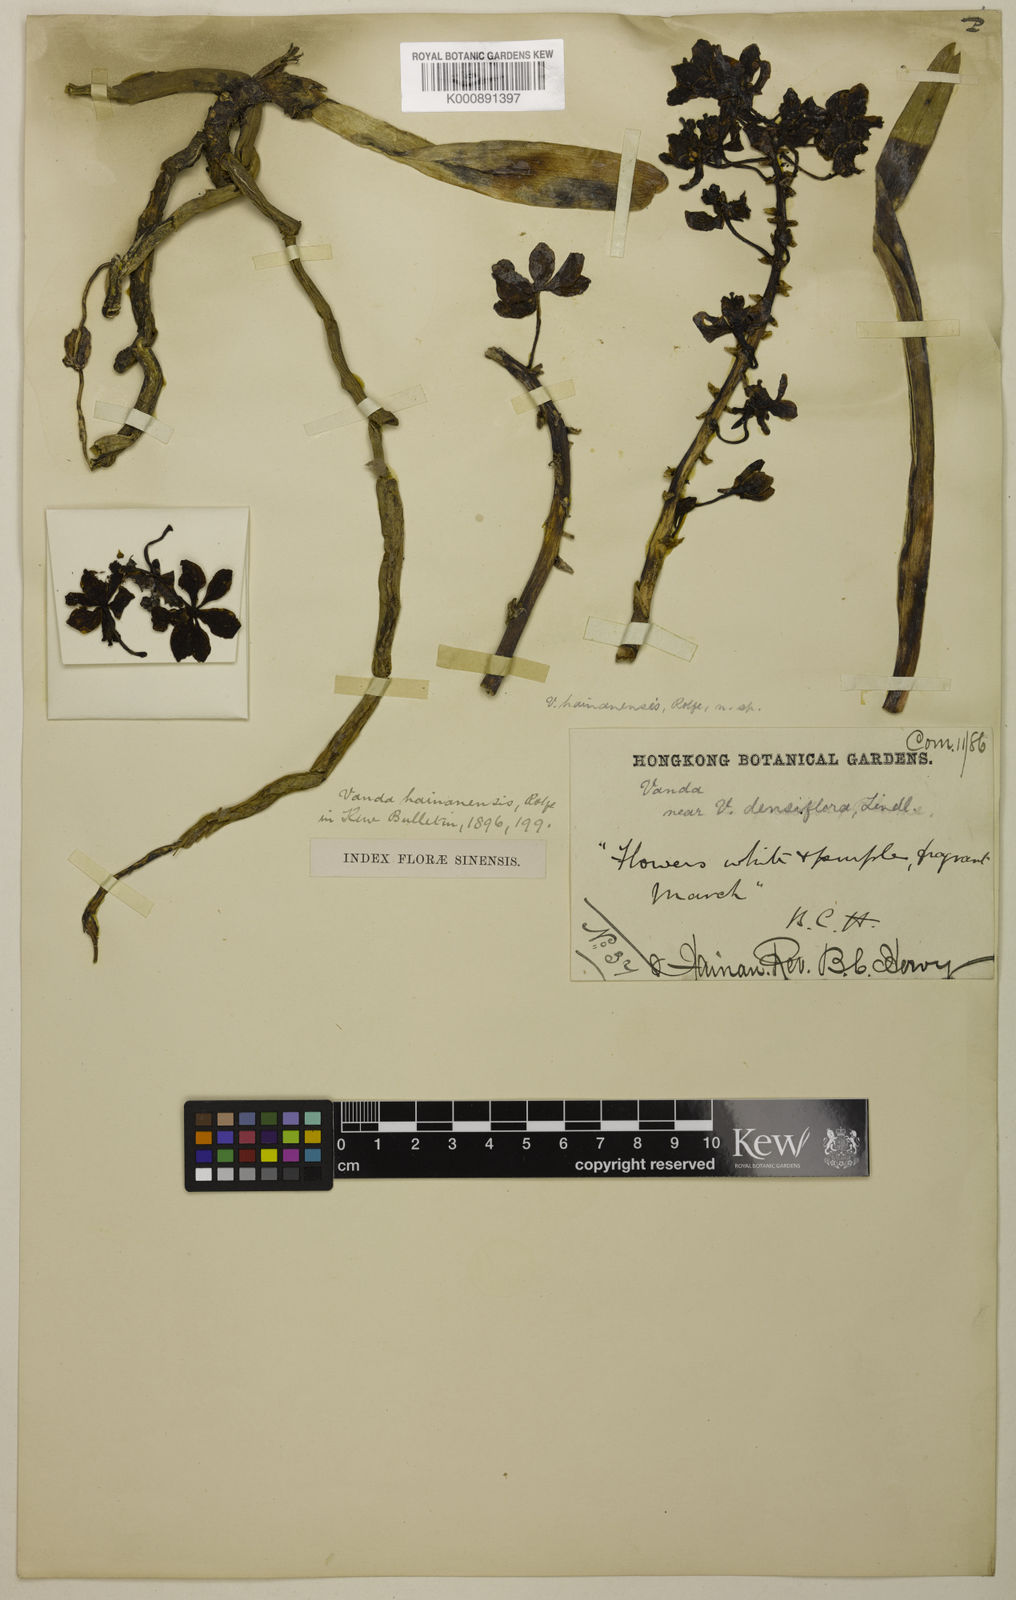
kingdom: Plantae
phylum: Tracheophyta
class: Liliopsida
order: Asparagales
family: Orchidaceae
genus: Rhynchostylis
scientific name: Rhynchostylis
